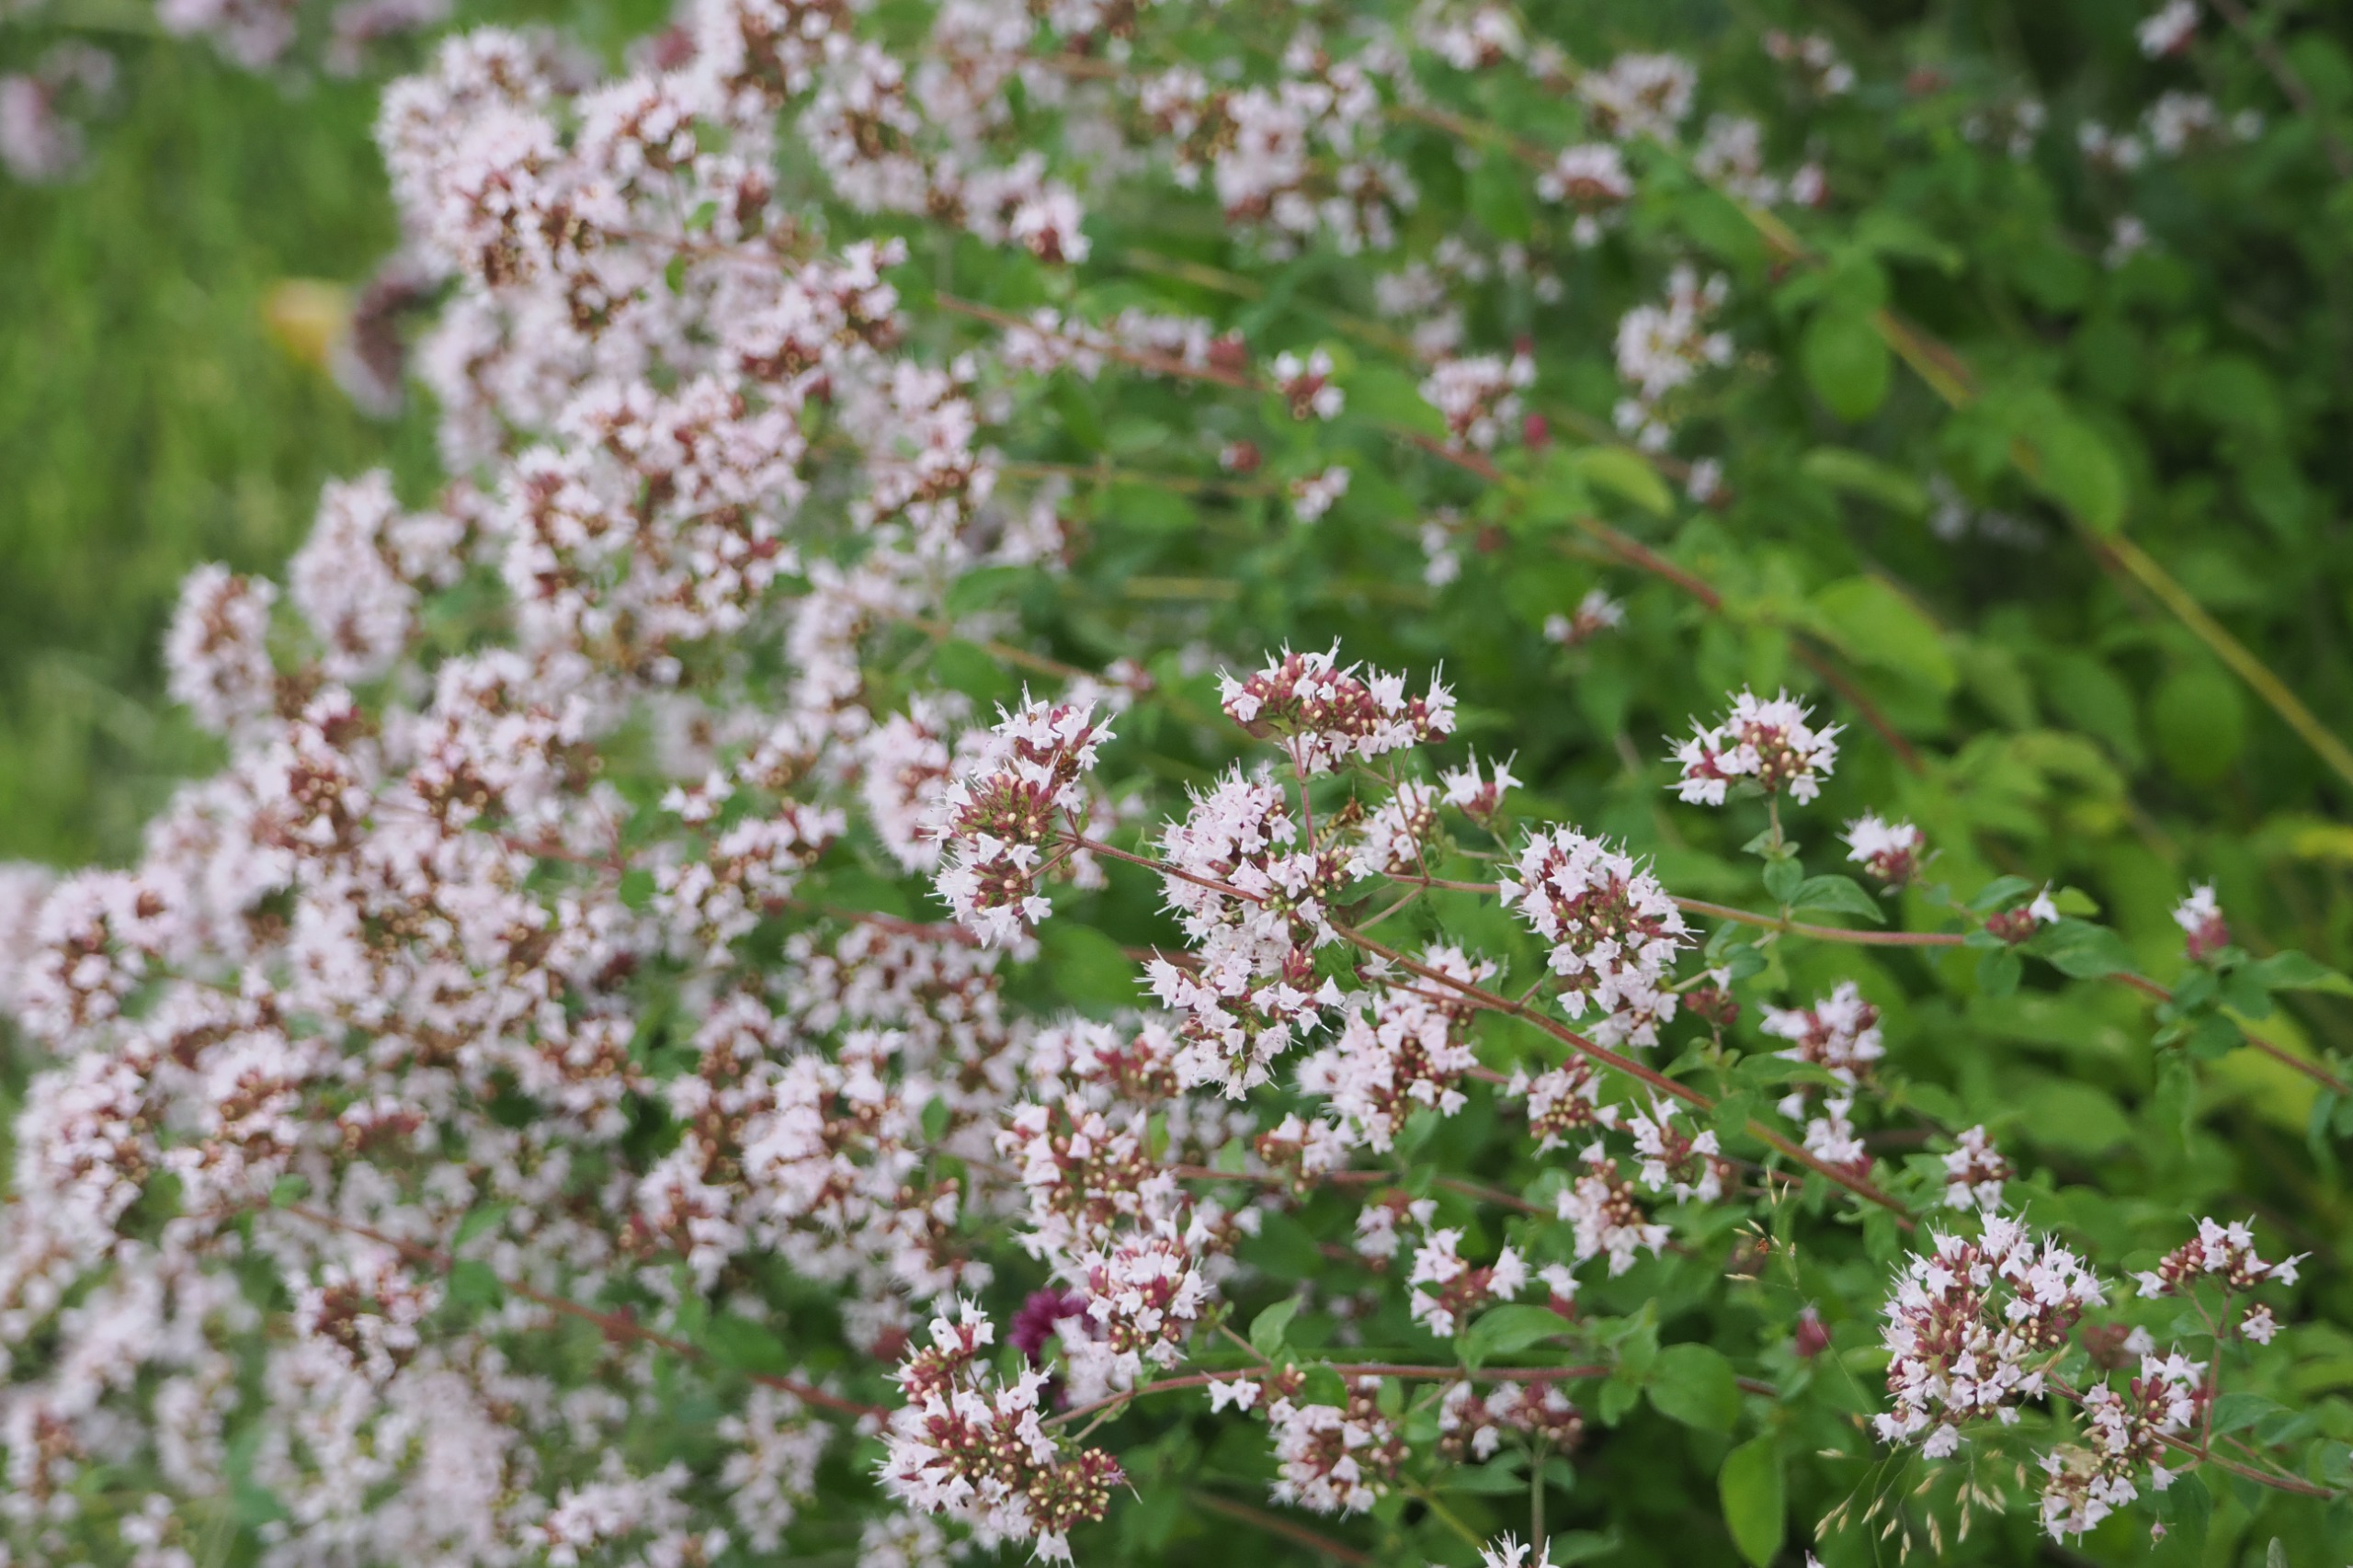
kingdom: Plantae
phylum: Tracheophyta
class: Magnoliopsida
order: Lamiales
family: Lamiaceae
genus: Origanum
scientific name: Origanum vulgare
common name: Merian
